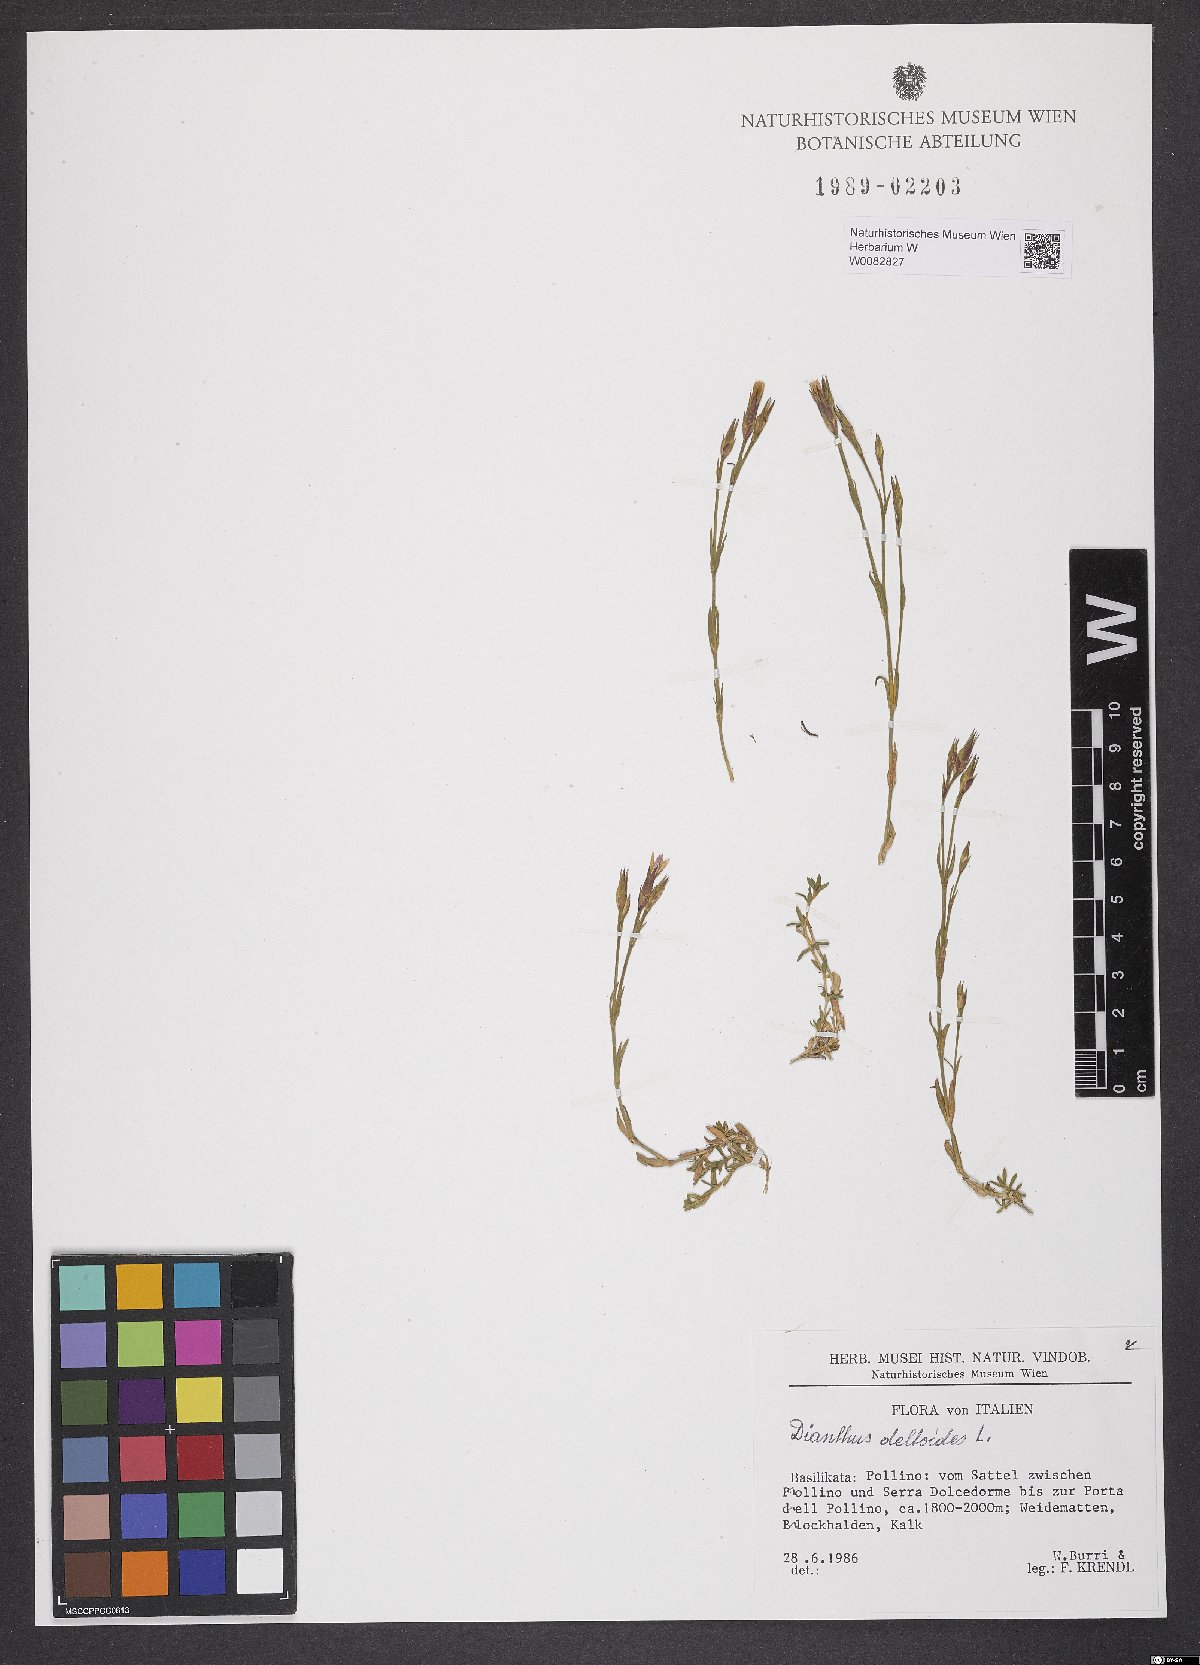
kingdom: Plantae
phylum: Tracheophyta
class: Magnoliopsida
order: Caryophyllales
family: Caryophyllaceae
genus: Dianthus
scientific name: Dianthus deltoides
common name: Maiden pink
